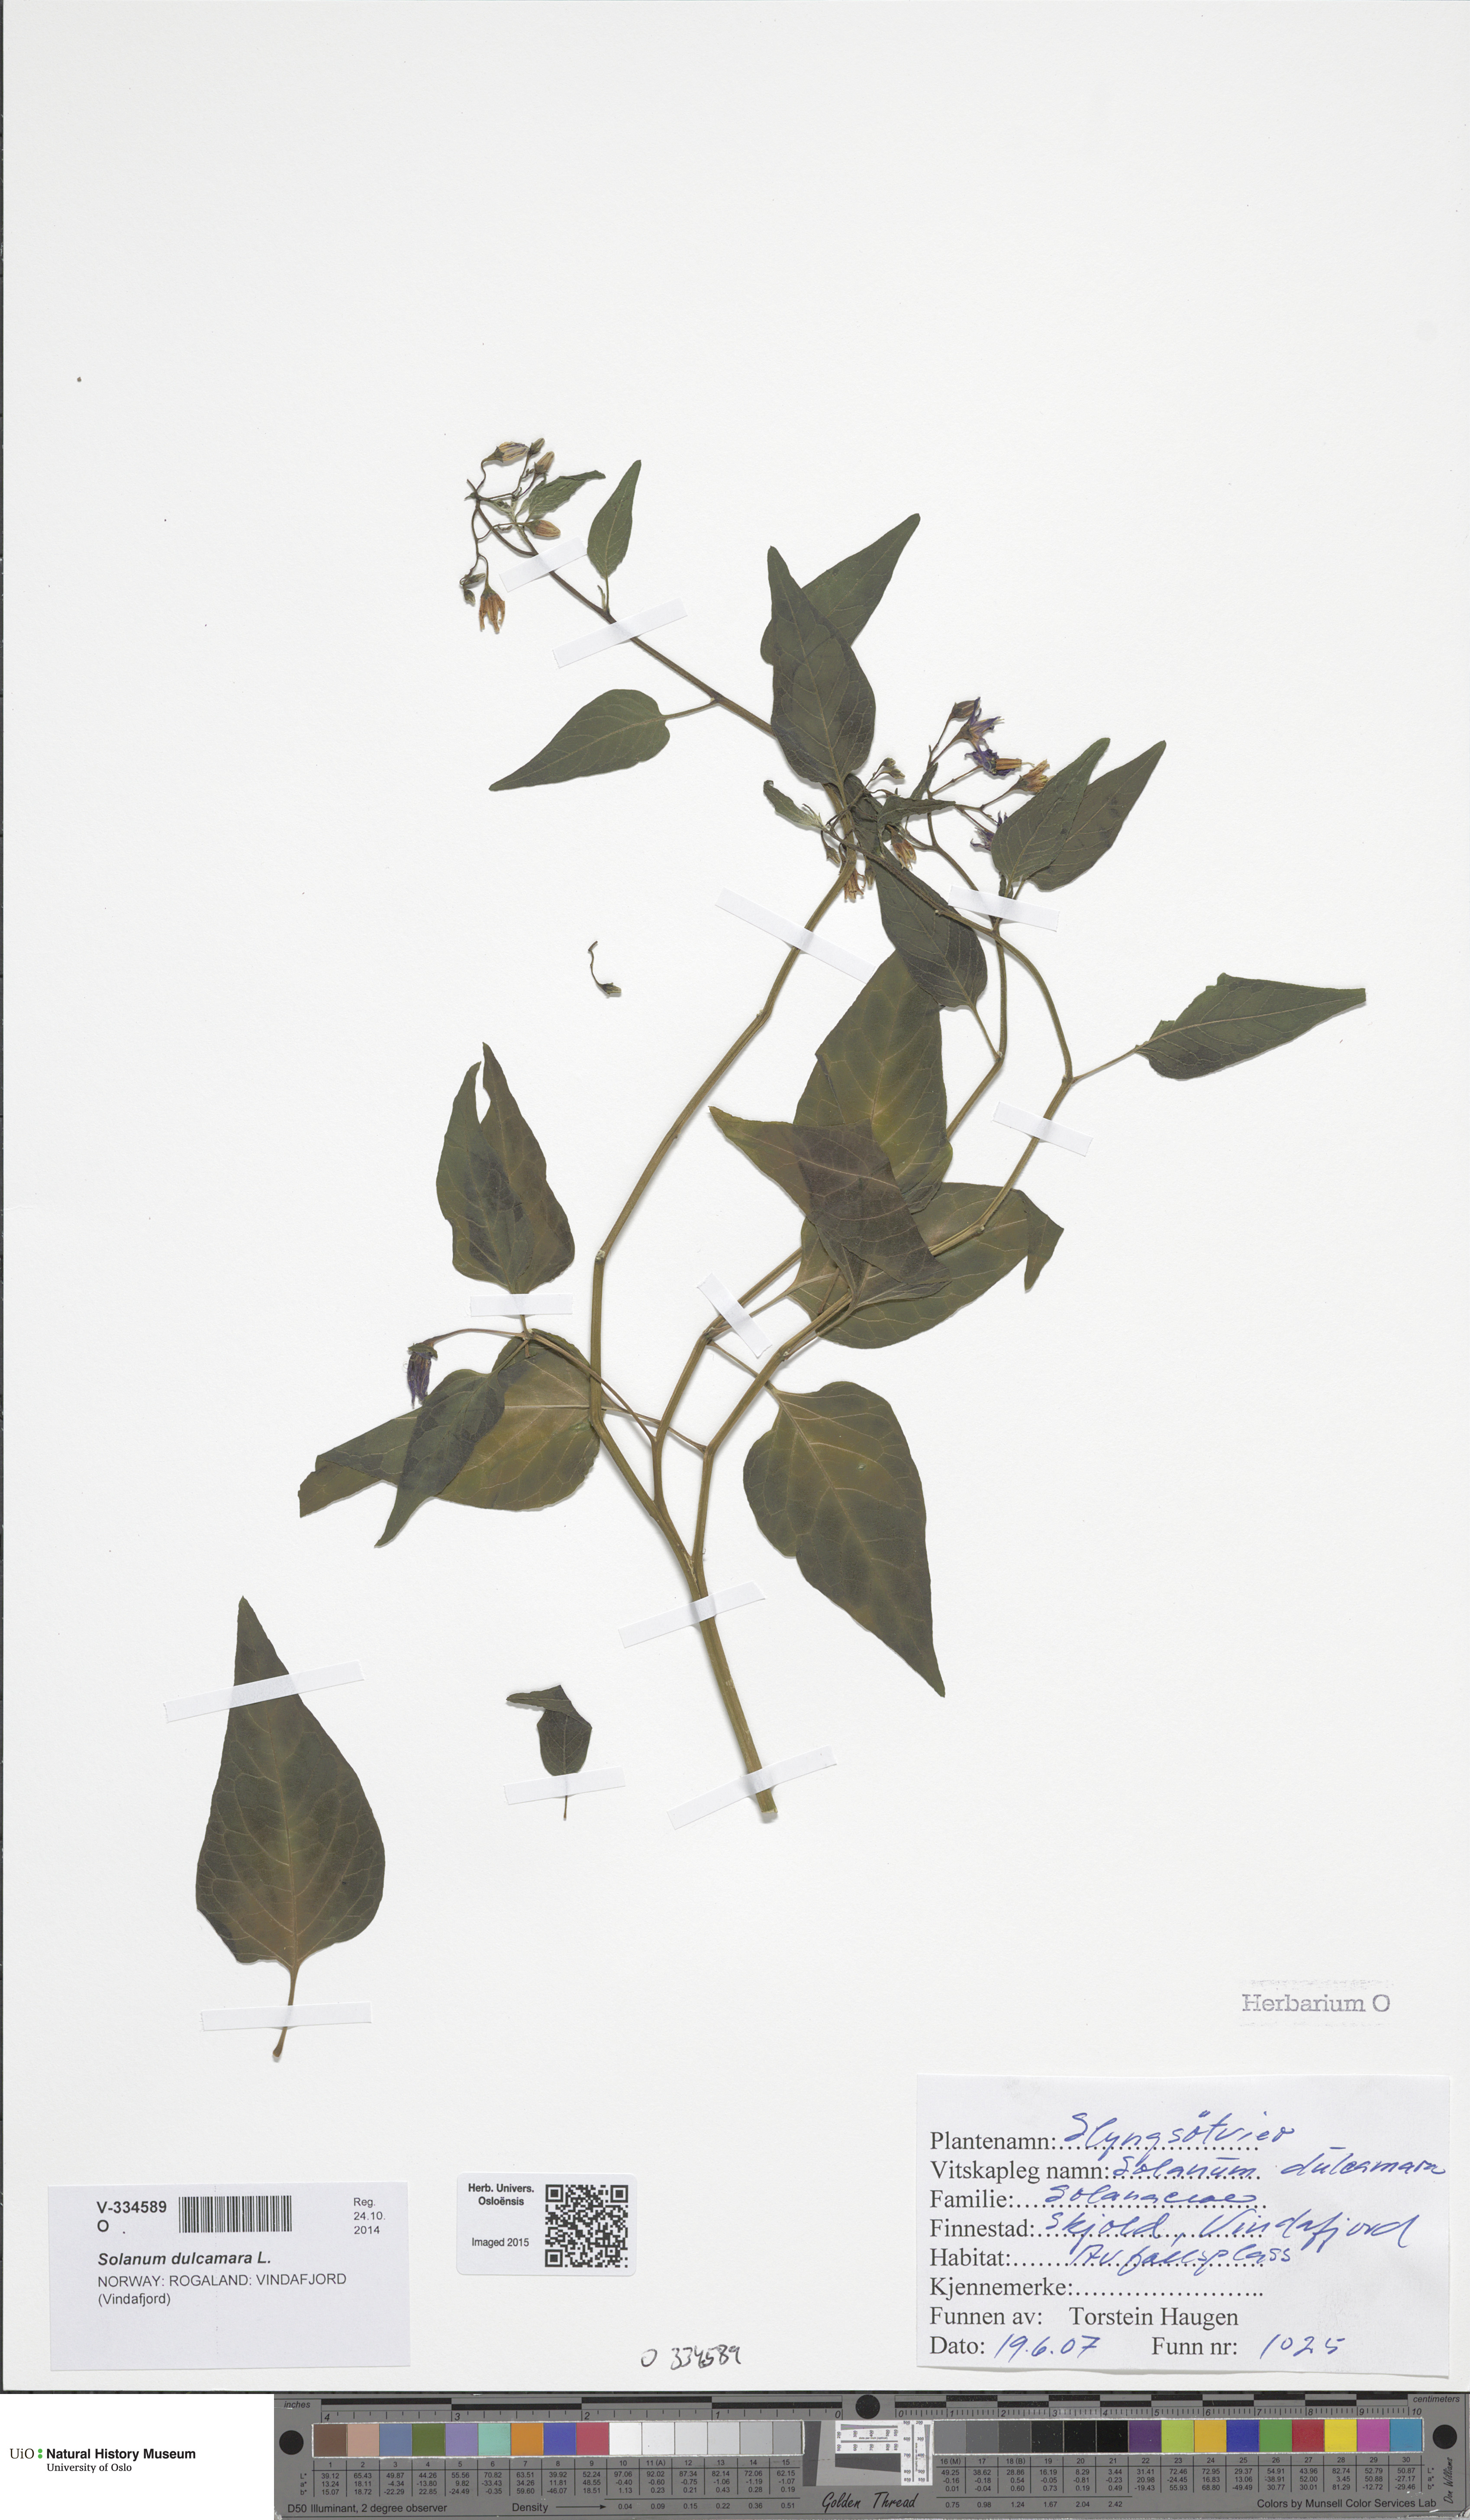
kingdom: Plantae
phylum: Tracheophyta
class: Magnoliopsida
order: Solanales
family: Solanaceae
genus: Solanum
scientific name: Solanum dulcamara
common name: Climbing nightshade
